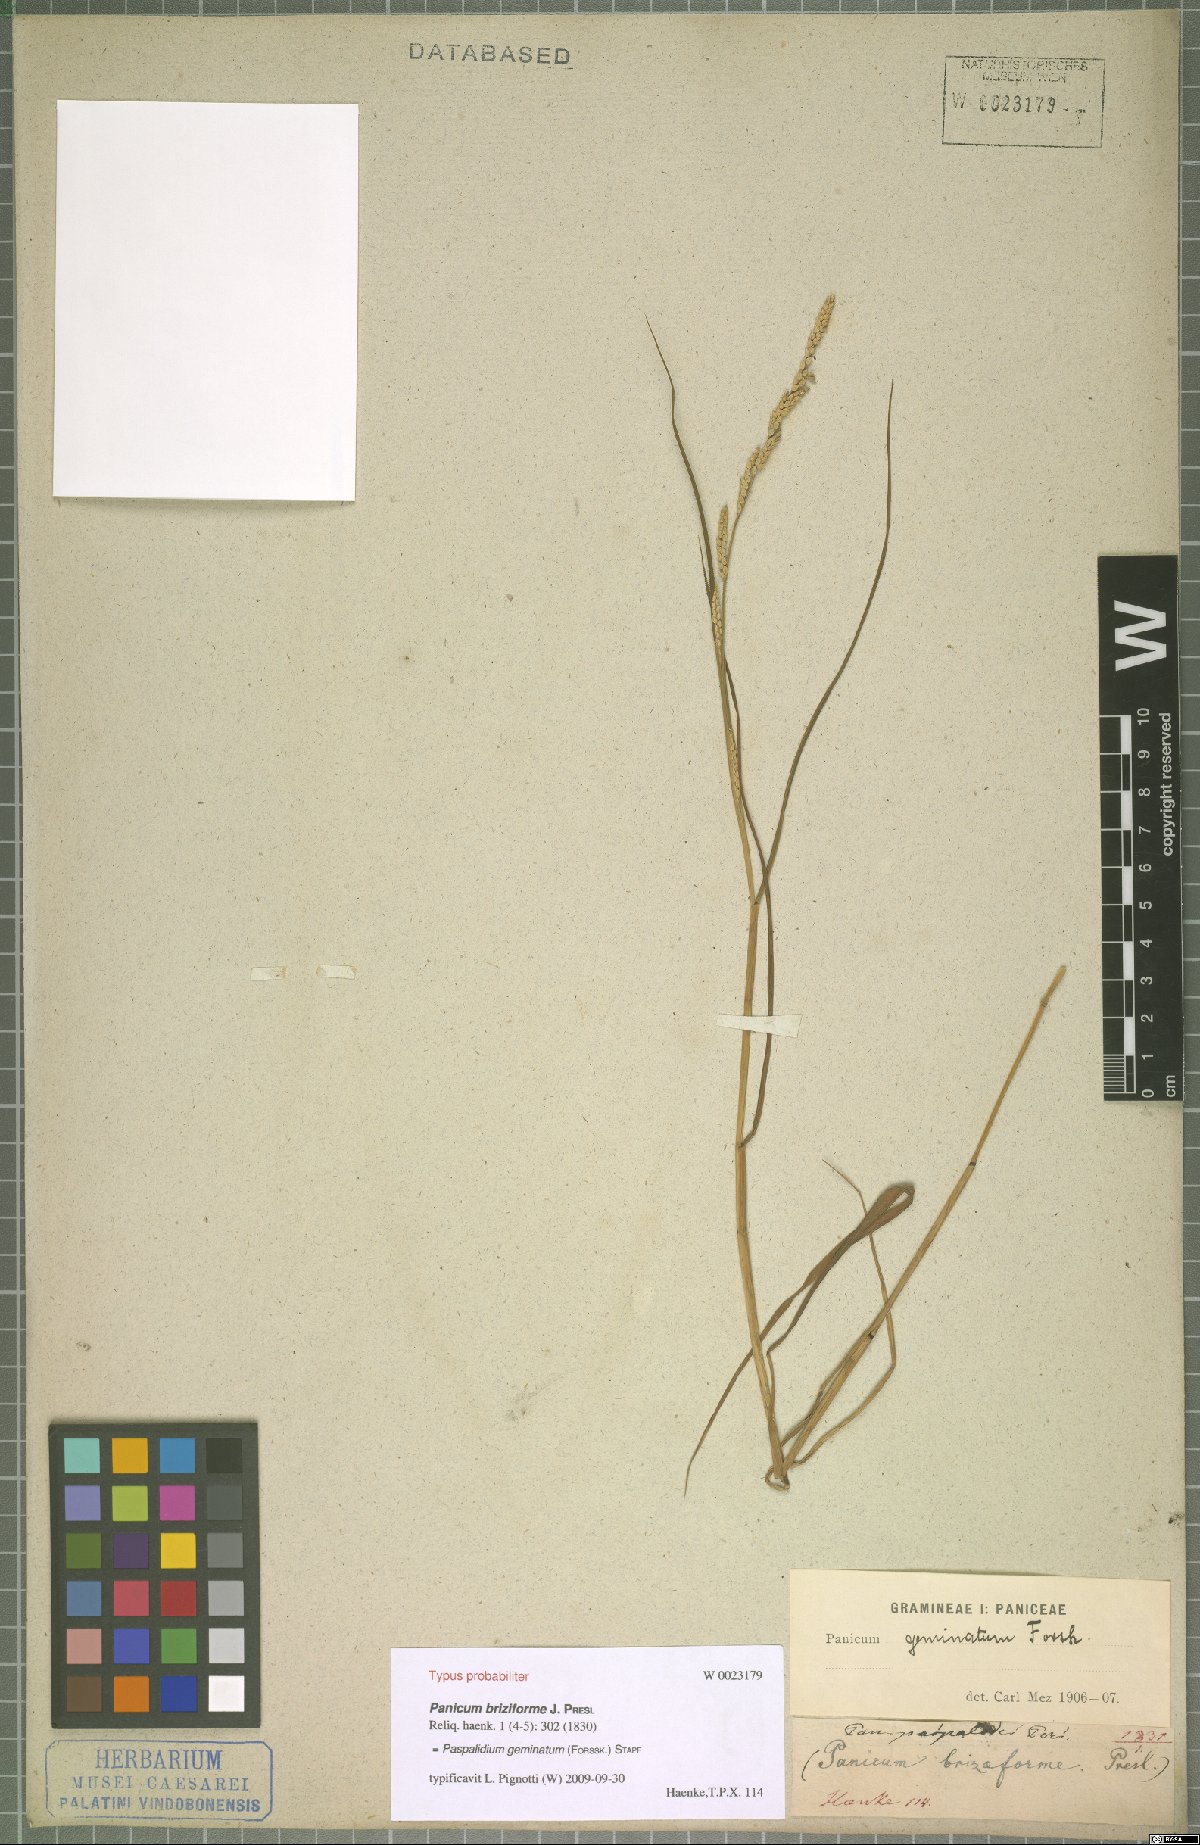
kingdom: Plantae
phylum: Tracheophyta
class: Liliopsida
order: Poales
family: Poaceae
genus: Setaria
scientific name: Setaria geminata
